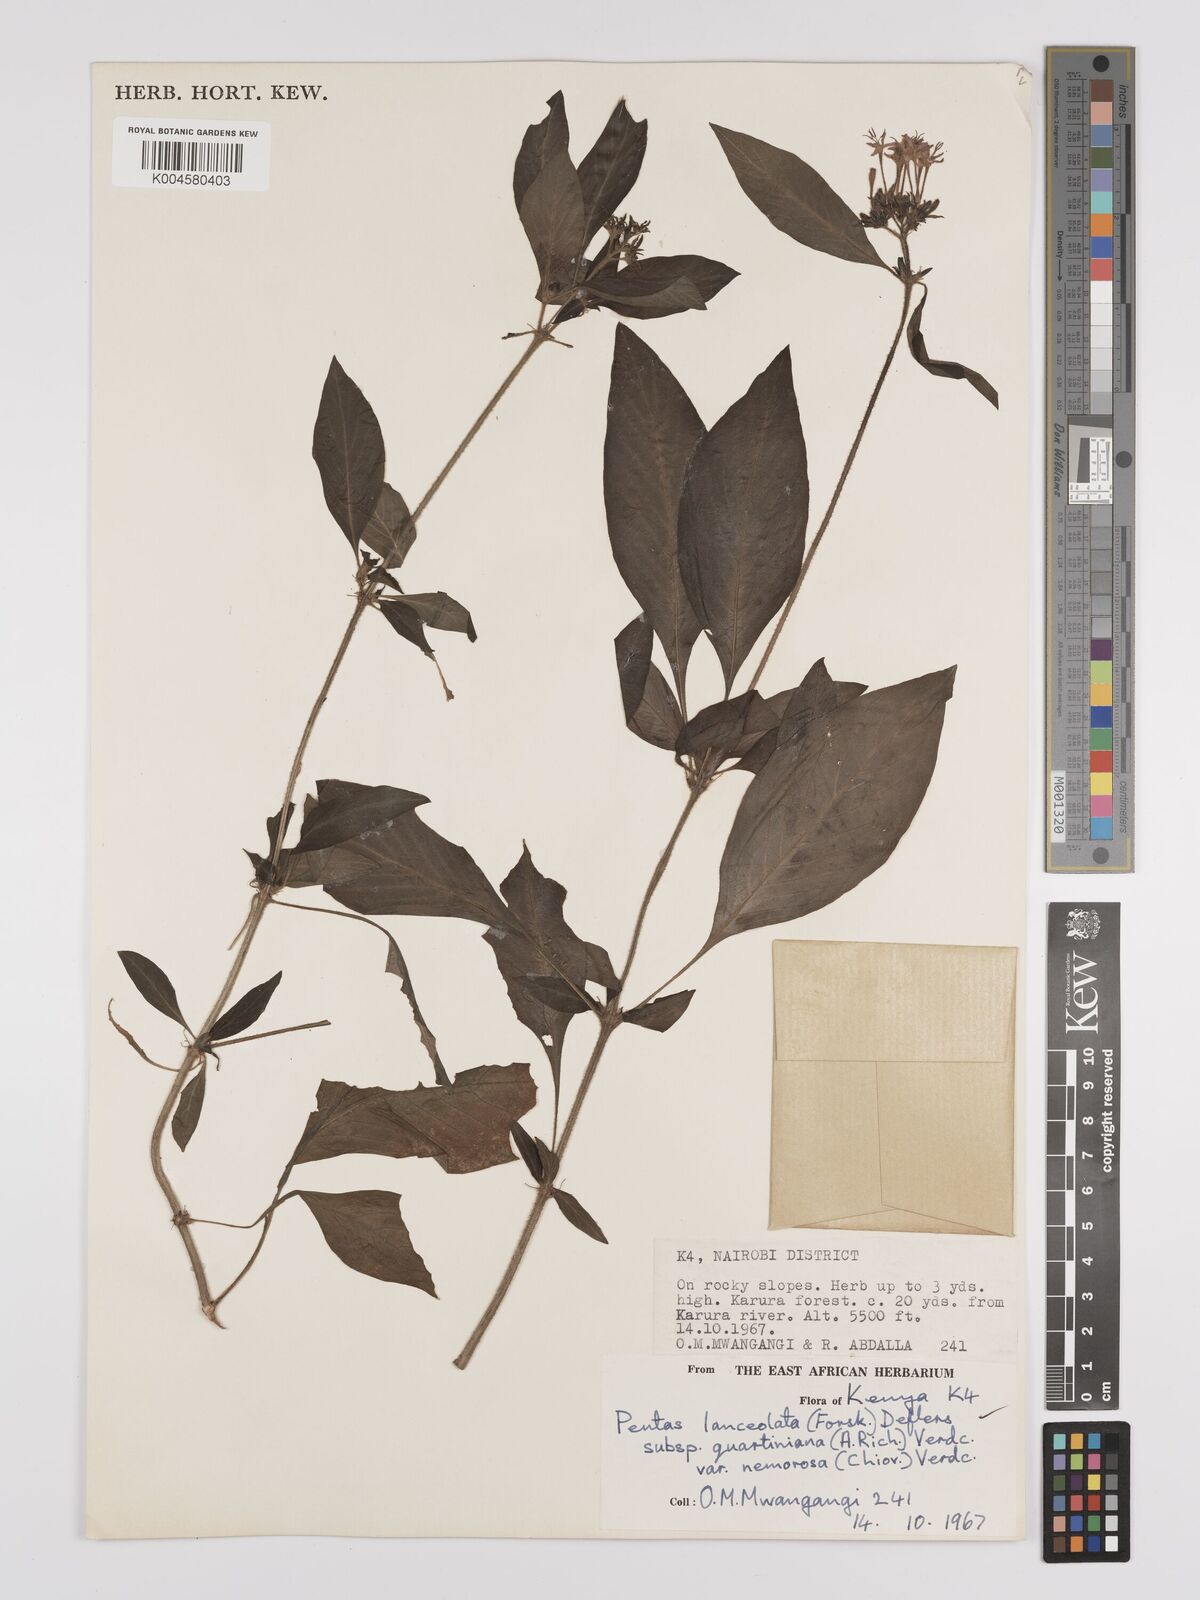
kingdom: Plantae
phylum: Tracheophyta
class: Magnoliopsida
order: Gentianales
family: Rubiaceae
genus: Pentas
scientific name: Pentas lanceolata
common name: Egyptian starcluster
